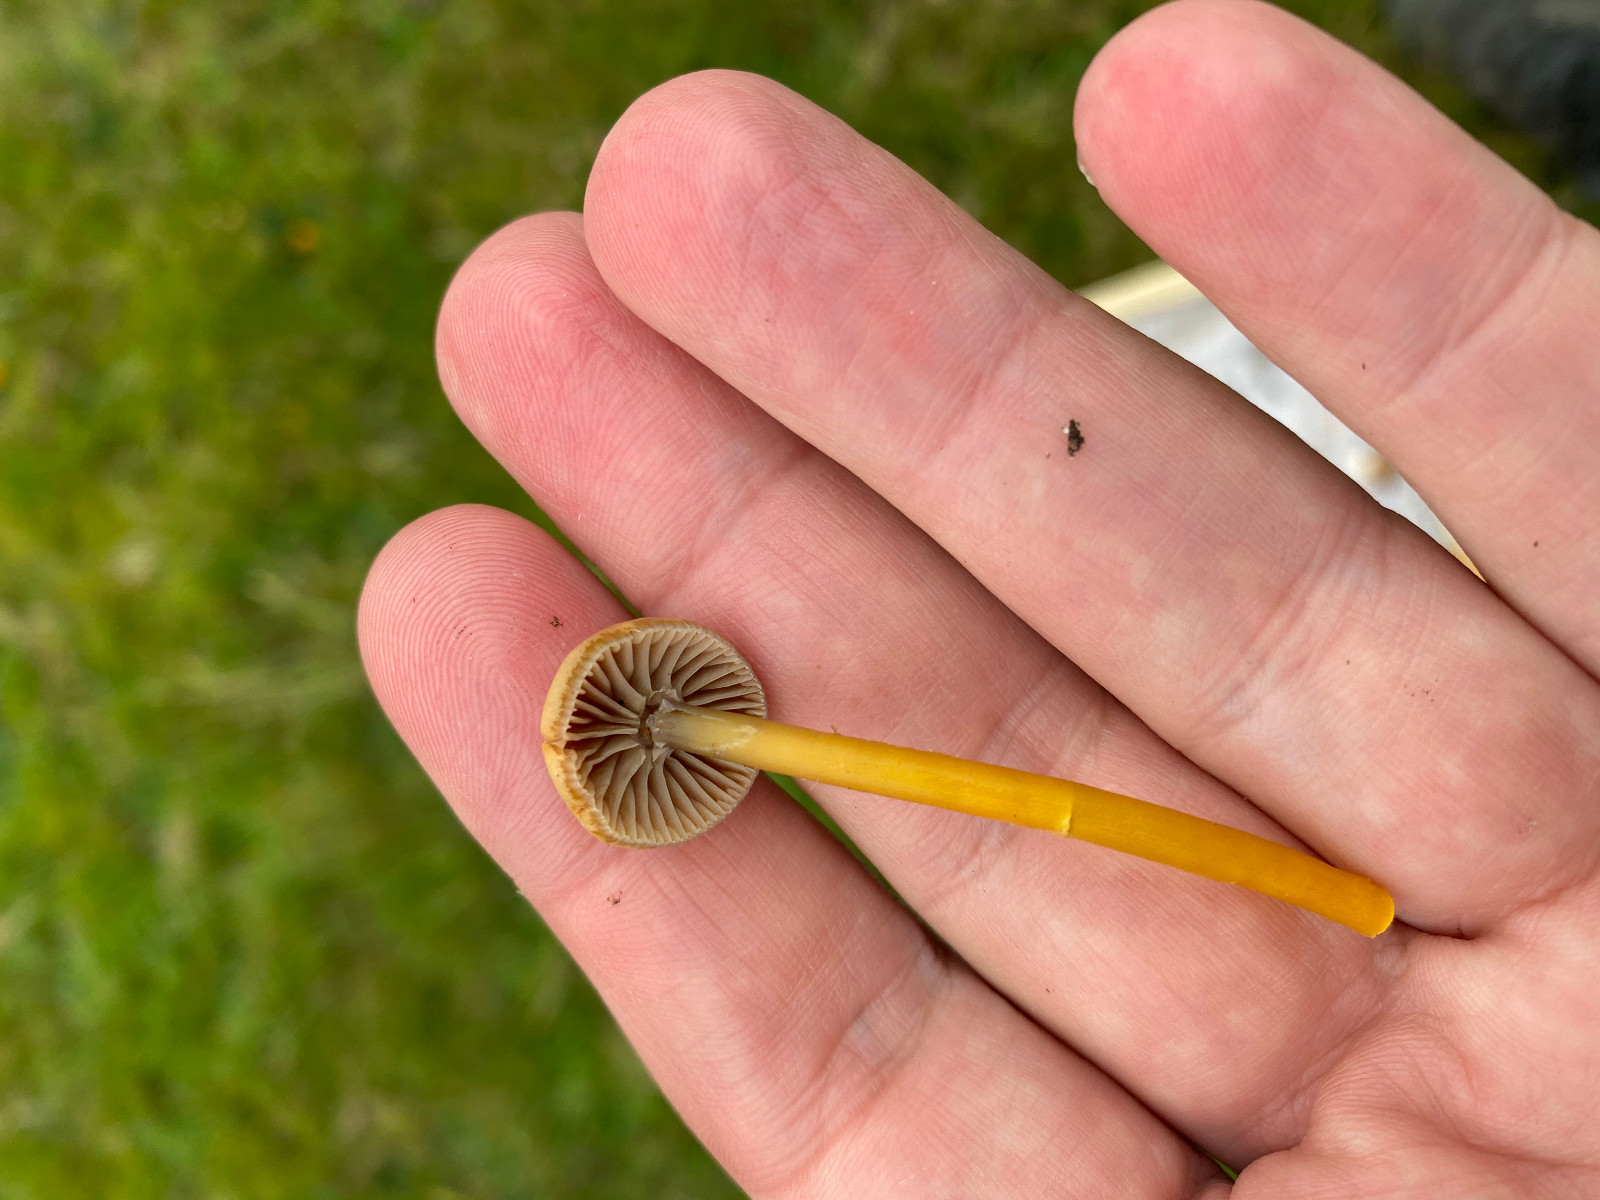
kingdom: Fungi
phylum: Basidiomycota
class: Agaricomycetes
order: Agaricales
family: Hygrophoraceae
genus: Gliophorus
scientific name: Gliophorus laetus
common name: brusk-vokshat
